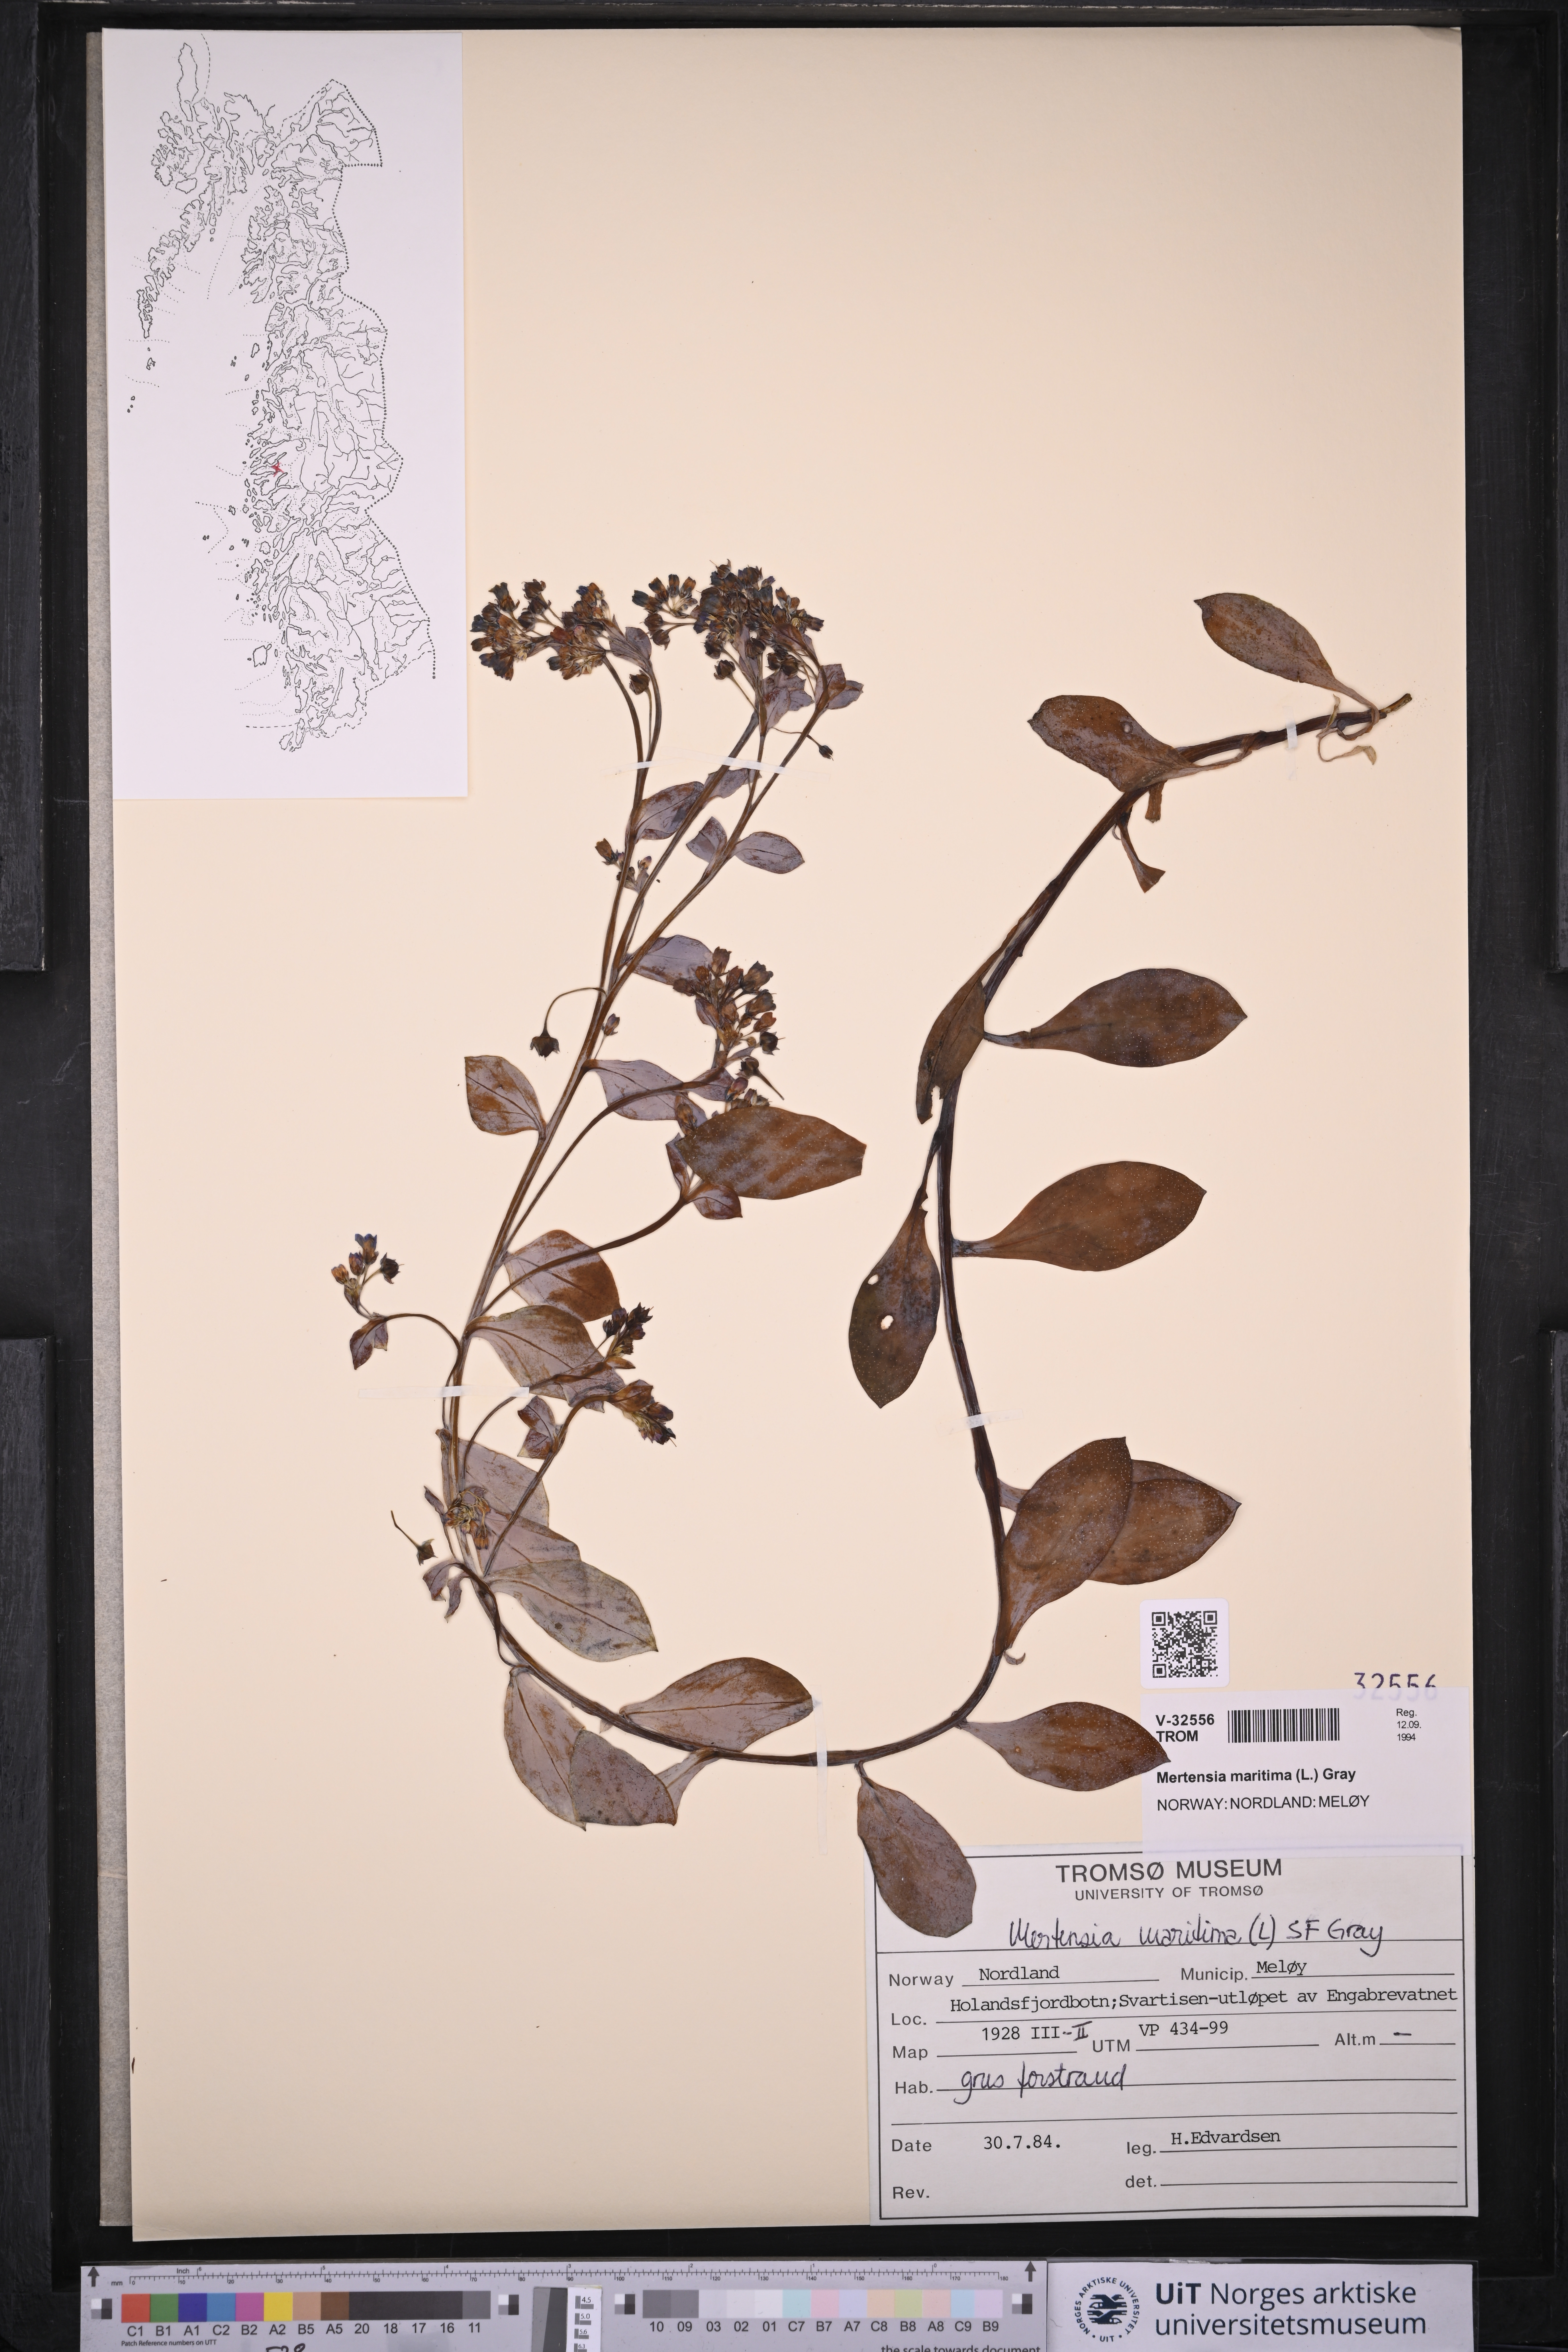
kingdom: Plantae
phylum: Tracheophyta
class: Magnoliopsida
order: Boraginales
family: Boraginaceae
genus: Mertensia
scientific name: Mertensia maritima
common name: Oysterplant
